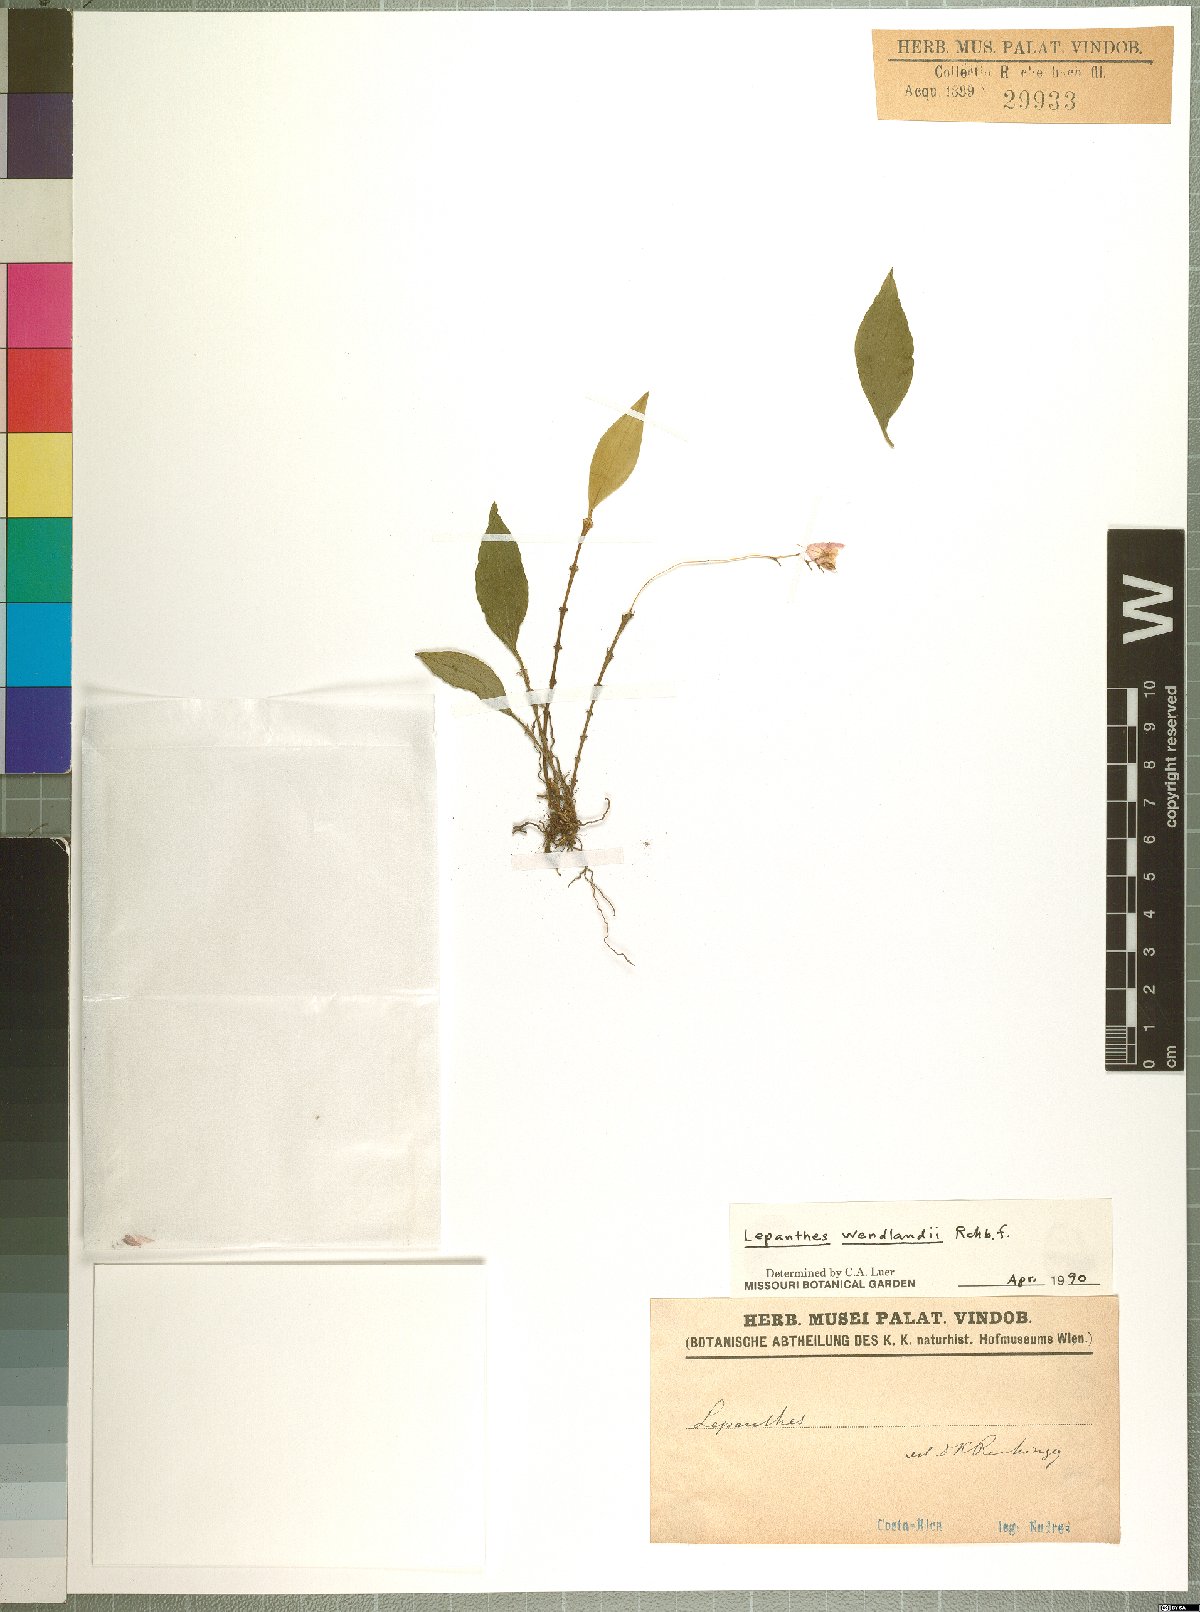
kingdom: Plantae
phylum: Tracheophyta
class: Liliopsida
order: Asparagales
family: Orchidaceae
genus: Lepanthes
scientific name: Lepanthes wendlandii
